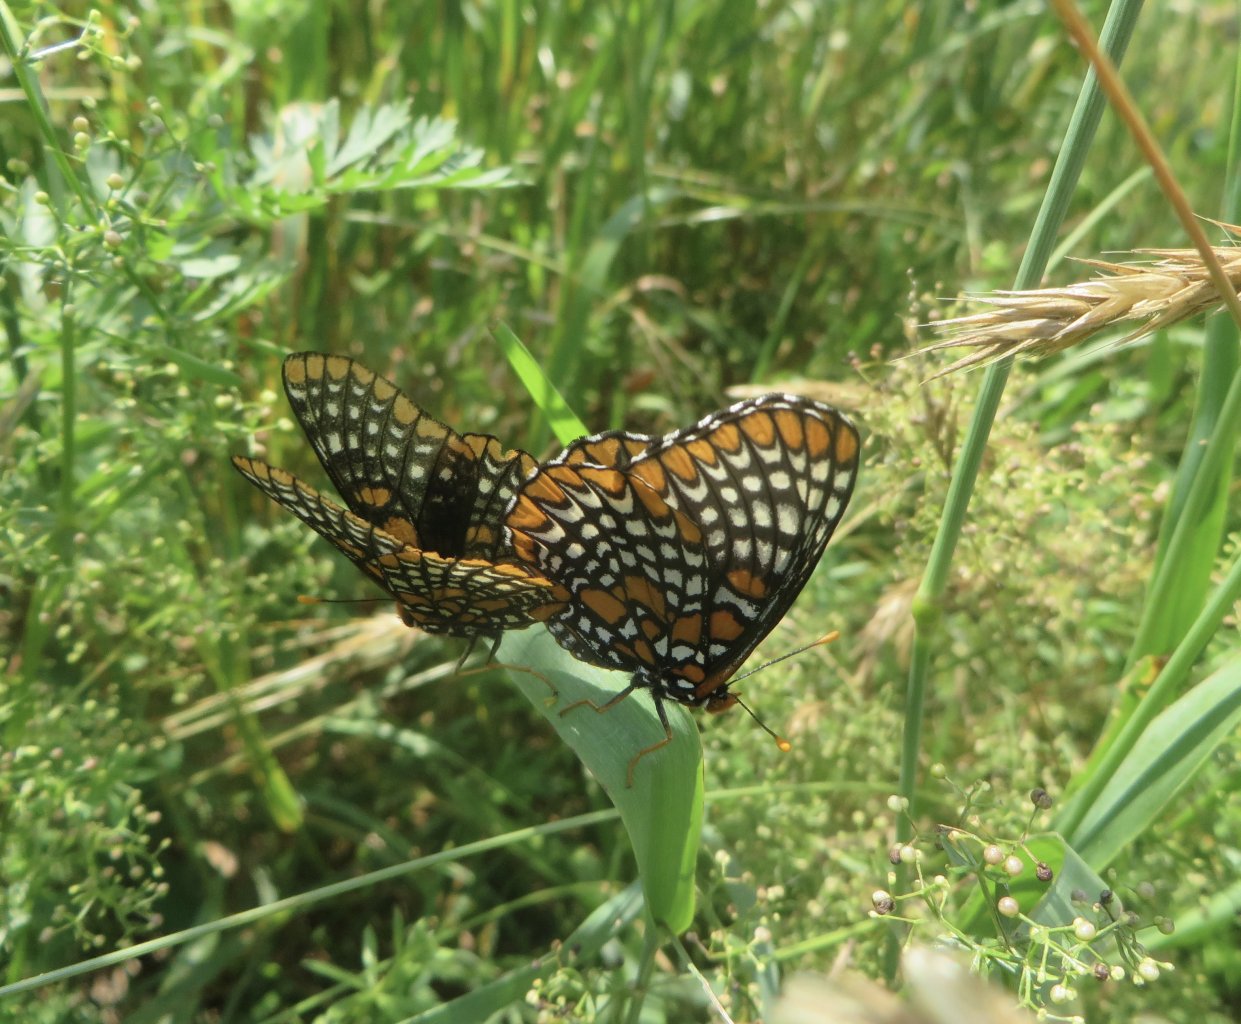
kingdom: Animalia
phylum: Arthropoda
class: Insecta
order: Lepidoptera
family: Nymphalidae
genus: Euphydryas
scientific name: Euphydryas phaeton
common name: Baltimore Checkerspot
